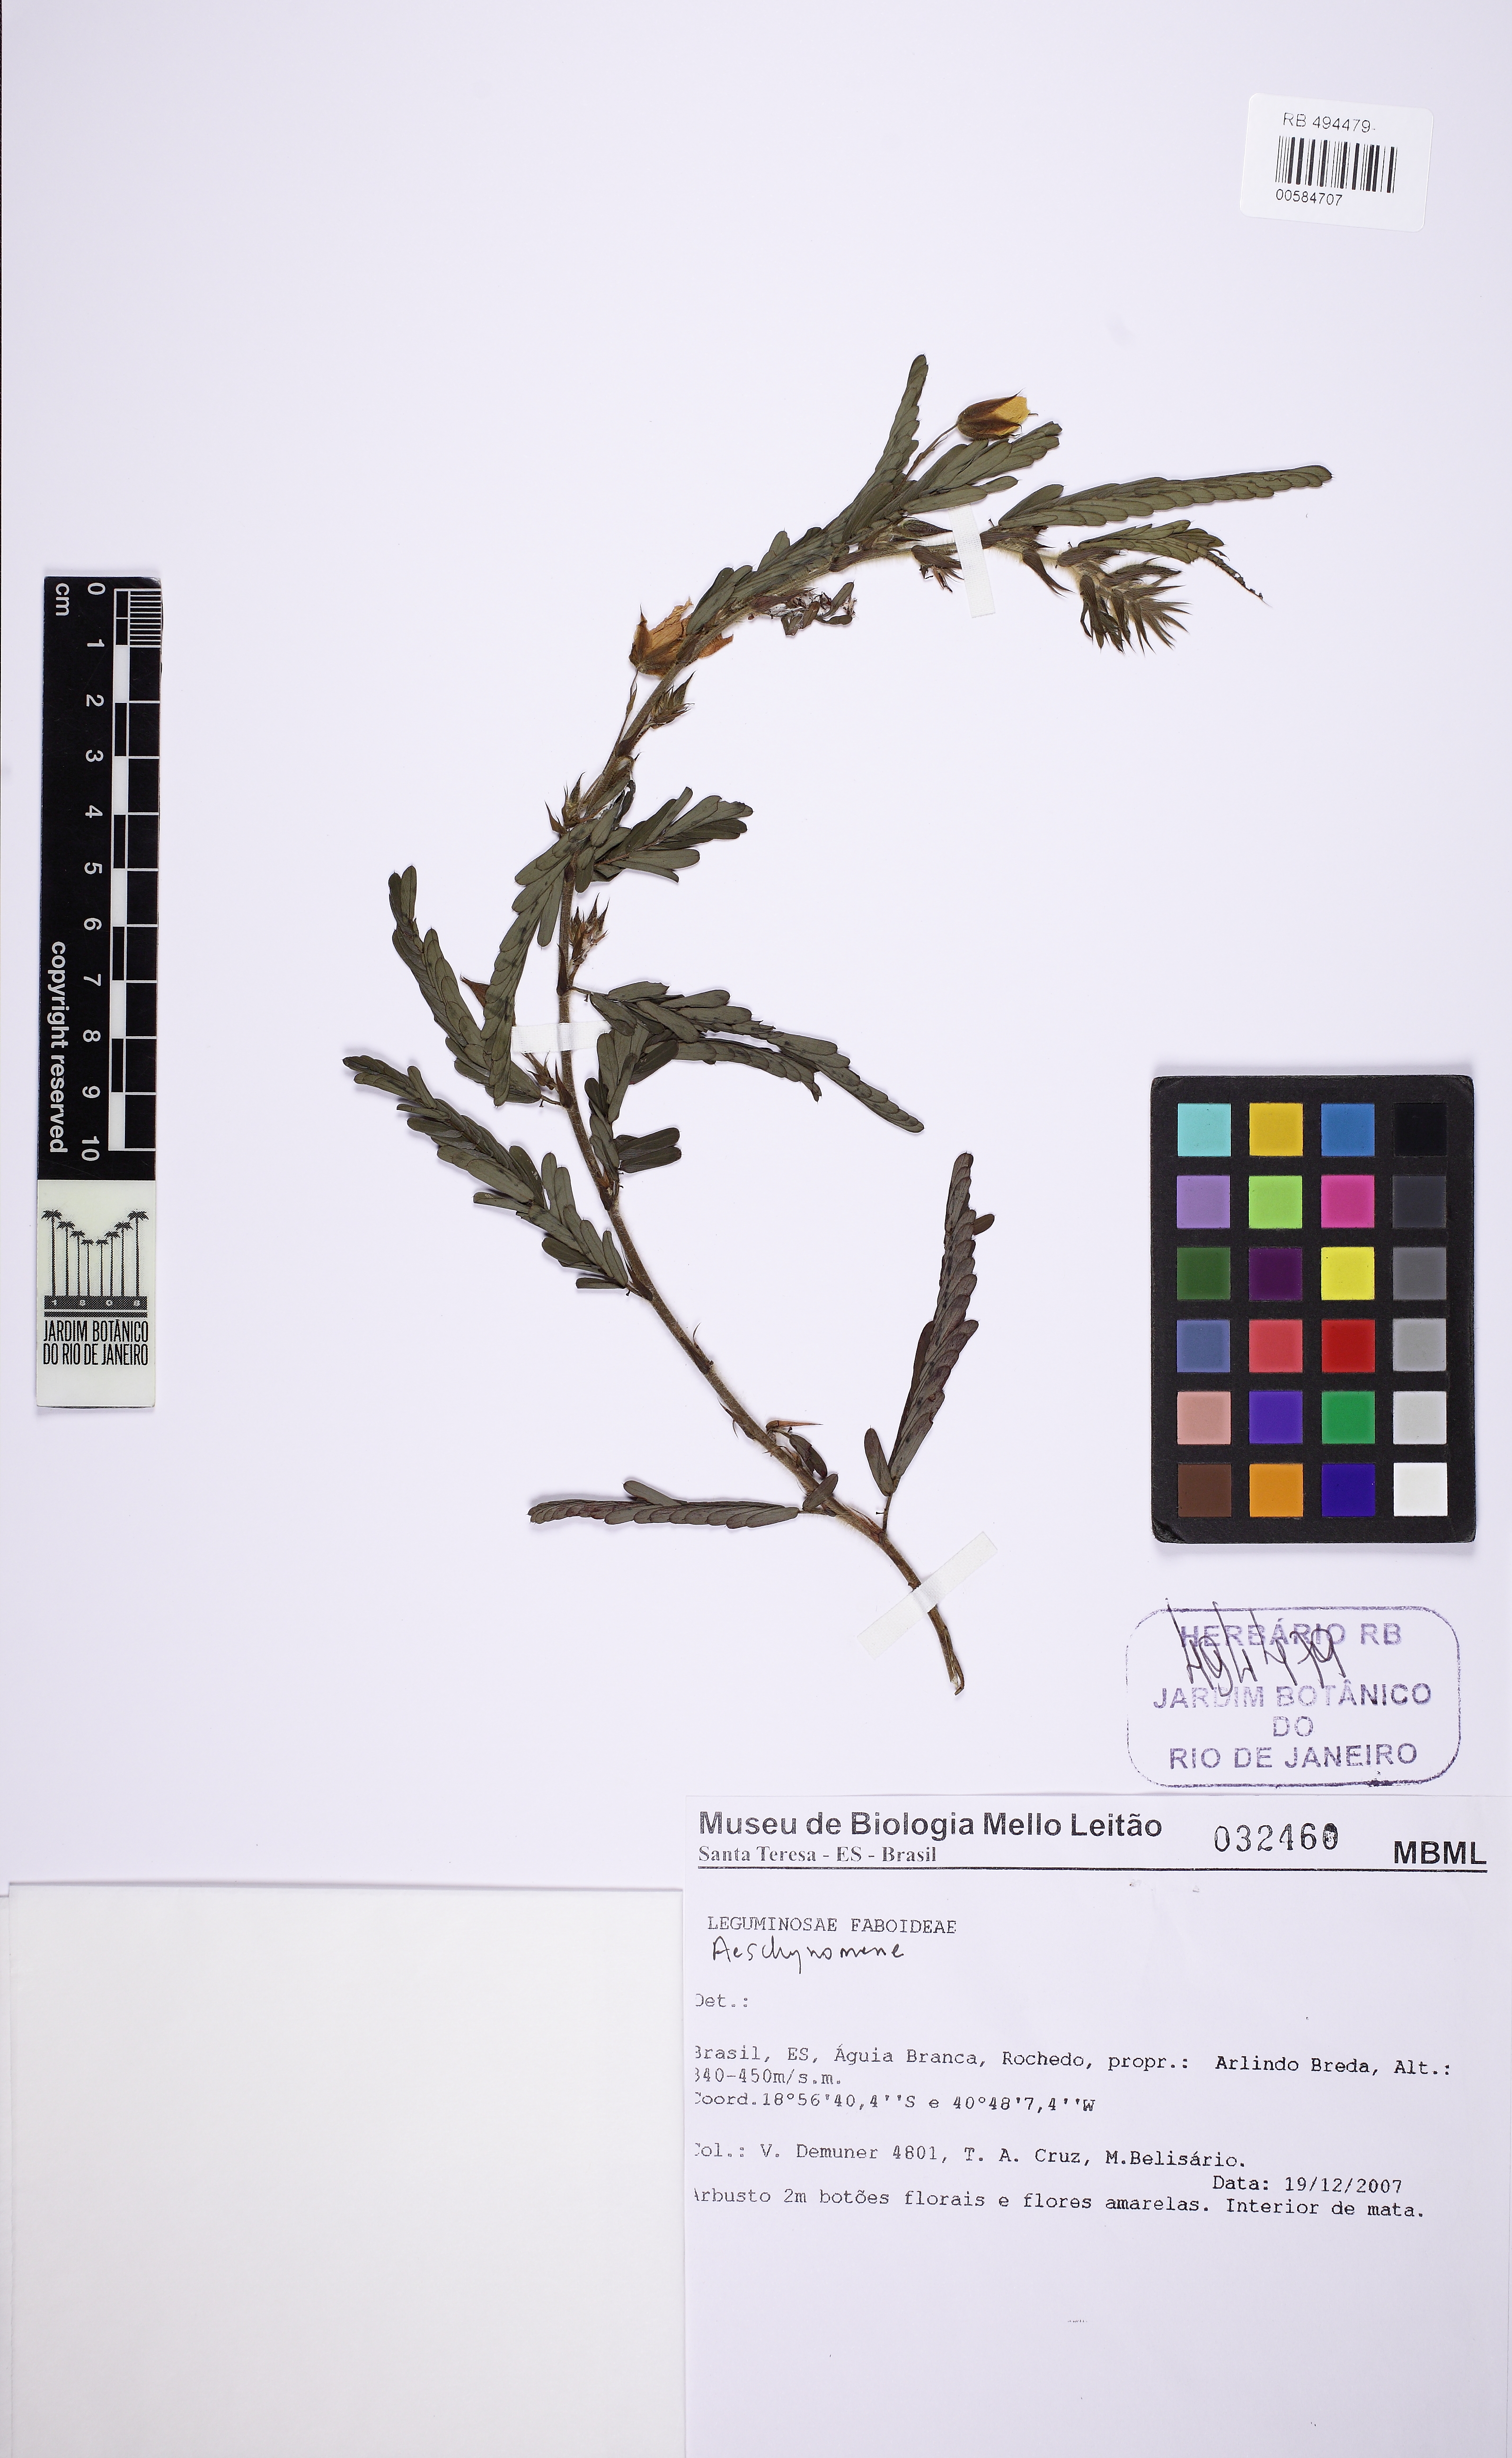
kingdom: Plantae
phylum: Tracheophyta
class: Magnoliopsida
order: Fabales
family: Fabaceae
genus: Chamaecrista
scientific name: Chamaecrista
